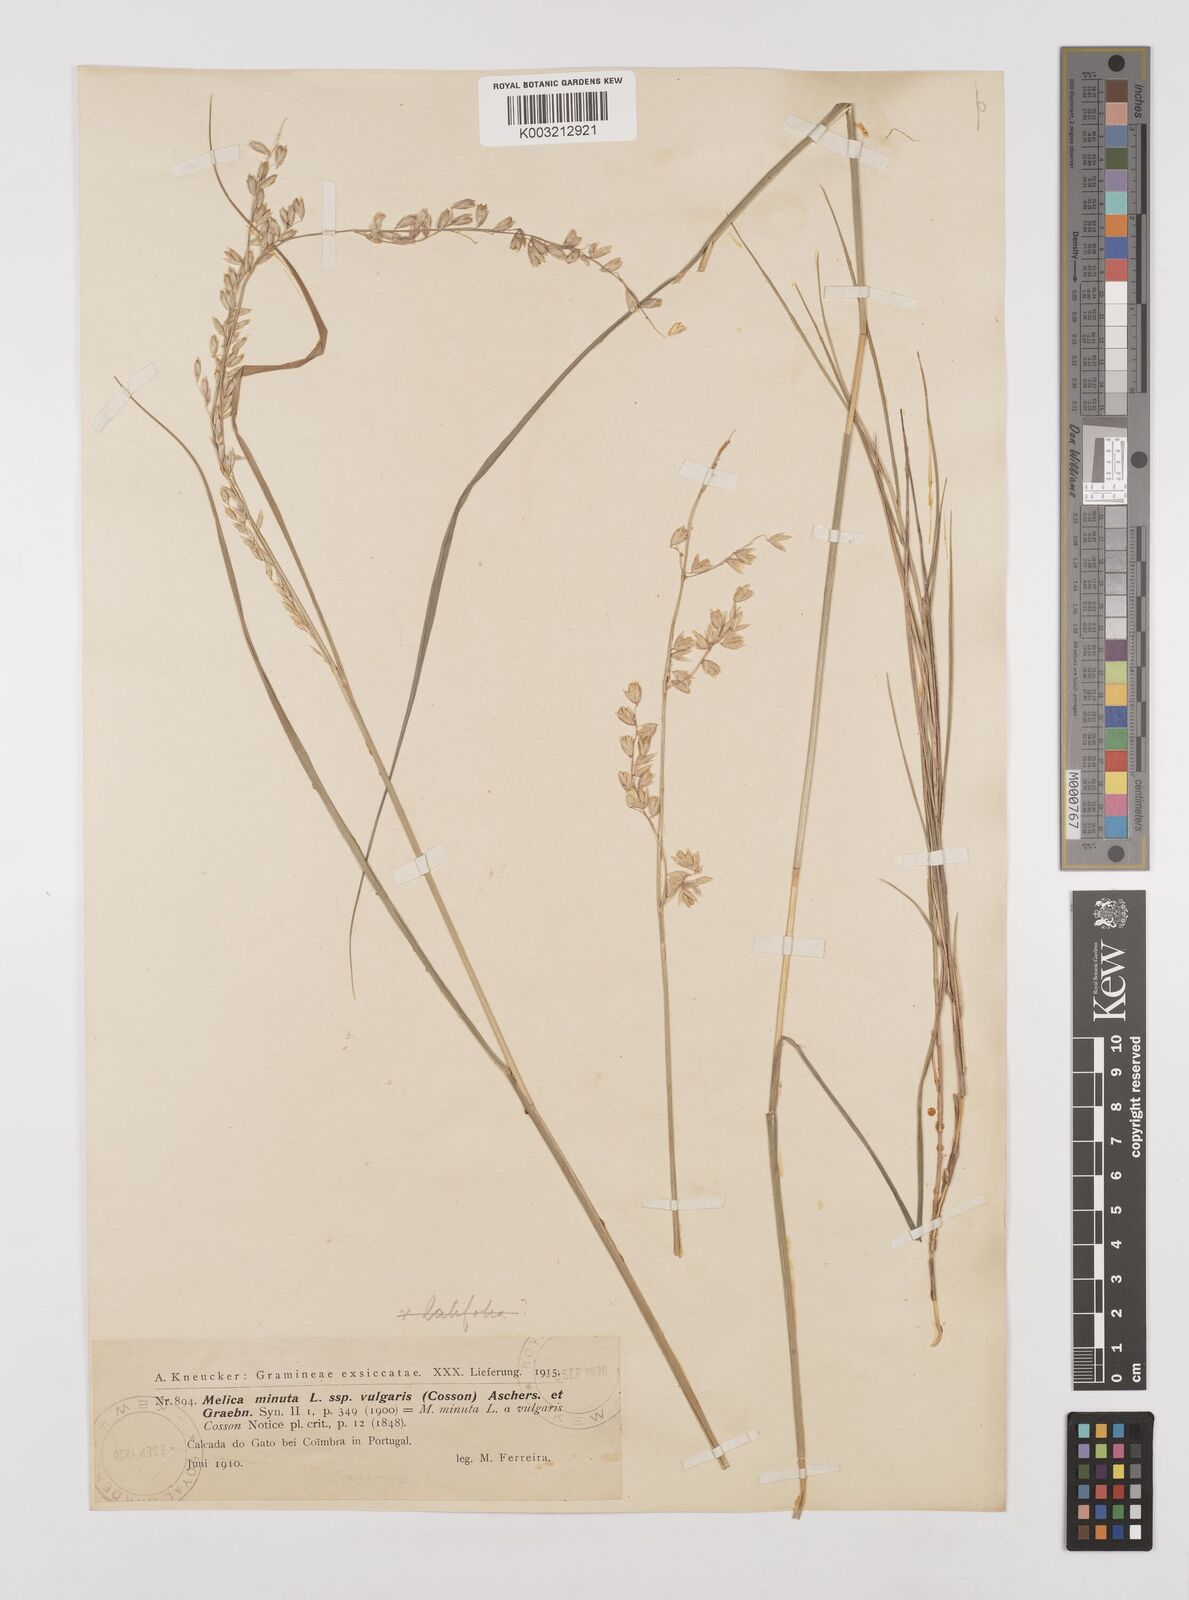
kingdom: Plantae
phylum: Tracheophyta
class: Liliopsida
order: Poales
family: Poaceae
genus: Melica
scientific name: Melica minuta
